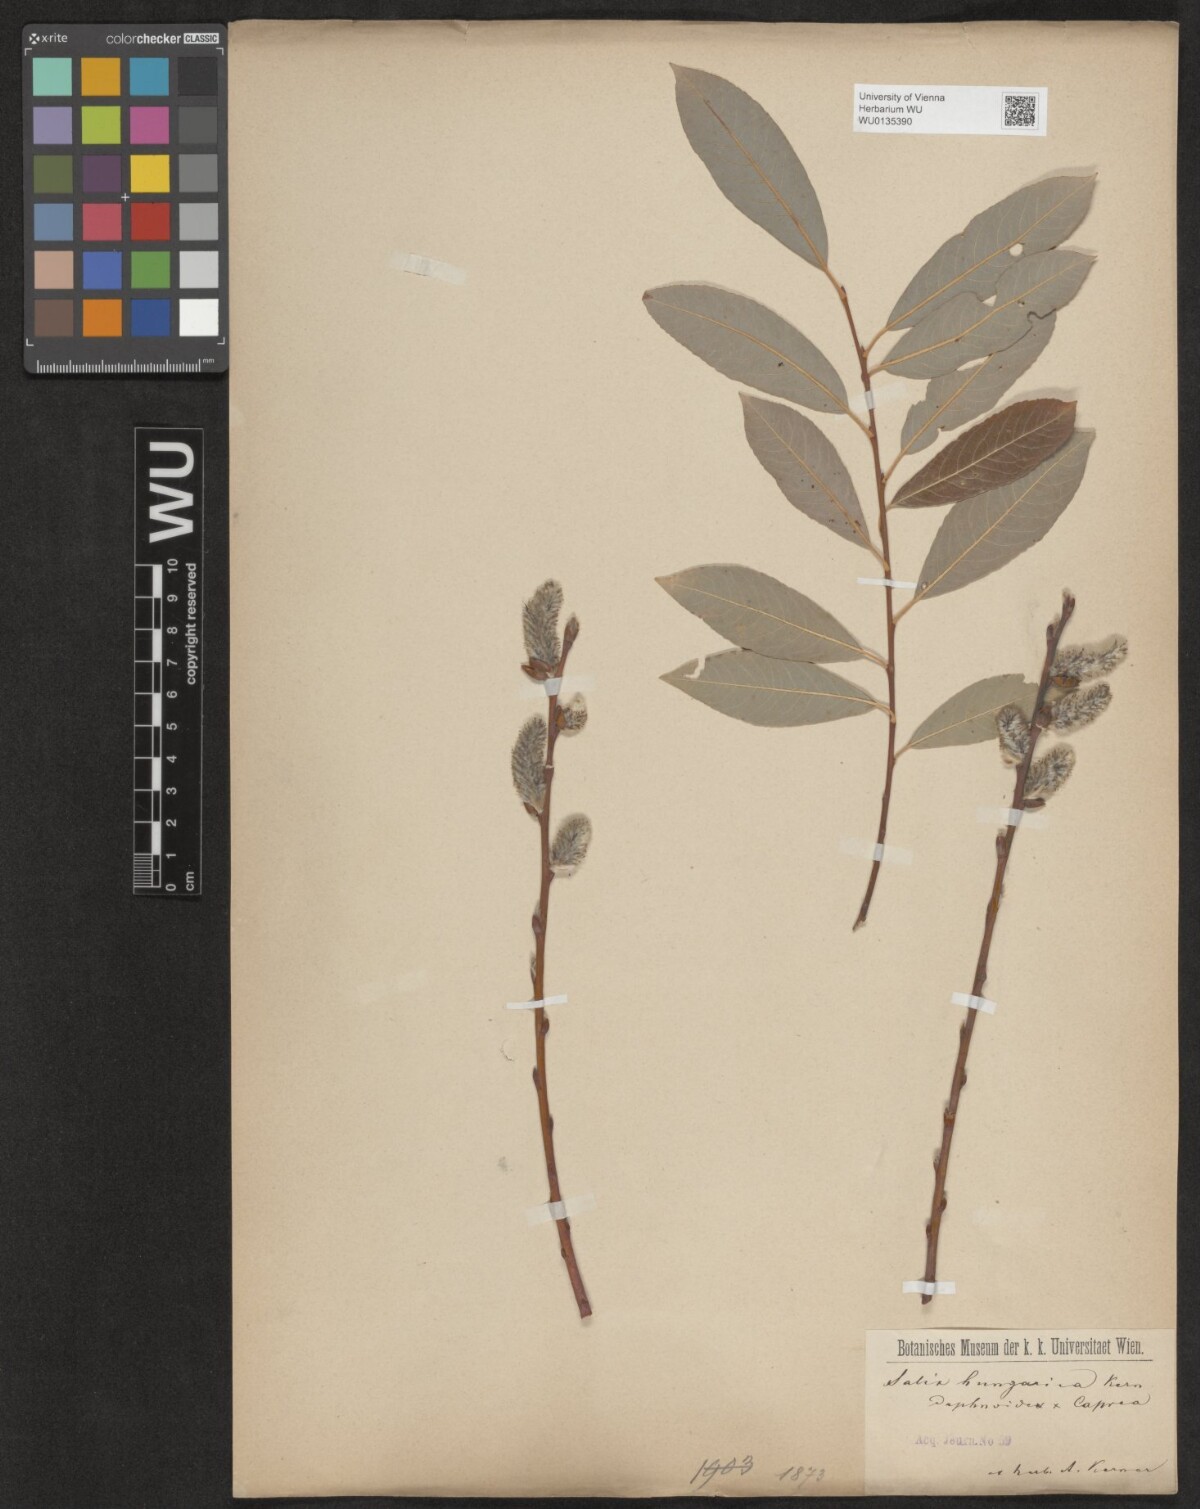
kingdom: Plantae
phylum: Tracheophyta
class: Magnoliopsida
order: Malpighiales
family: Salicaceae
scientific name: Salicaceae
